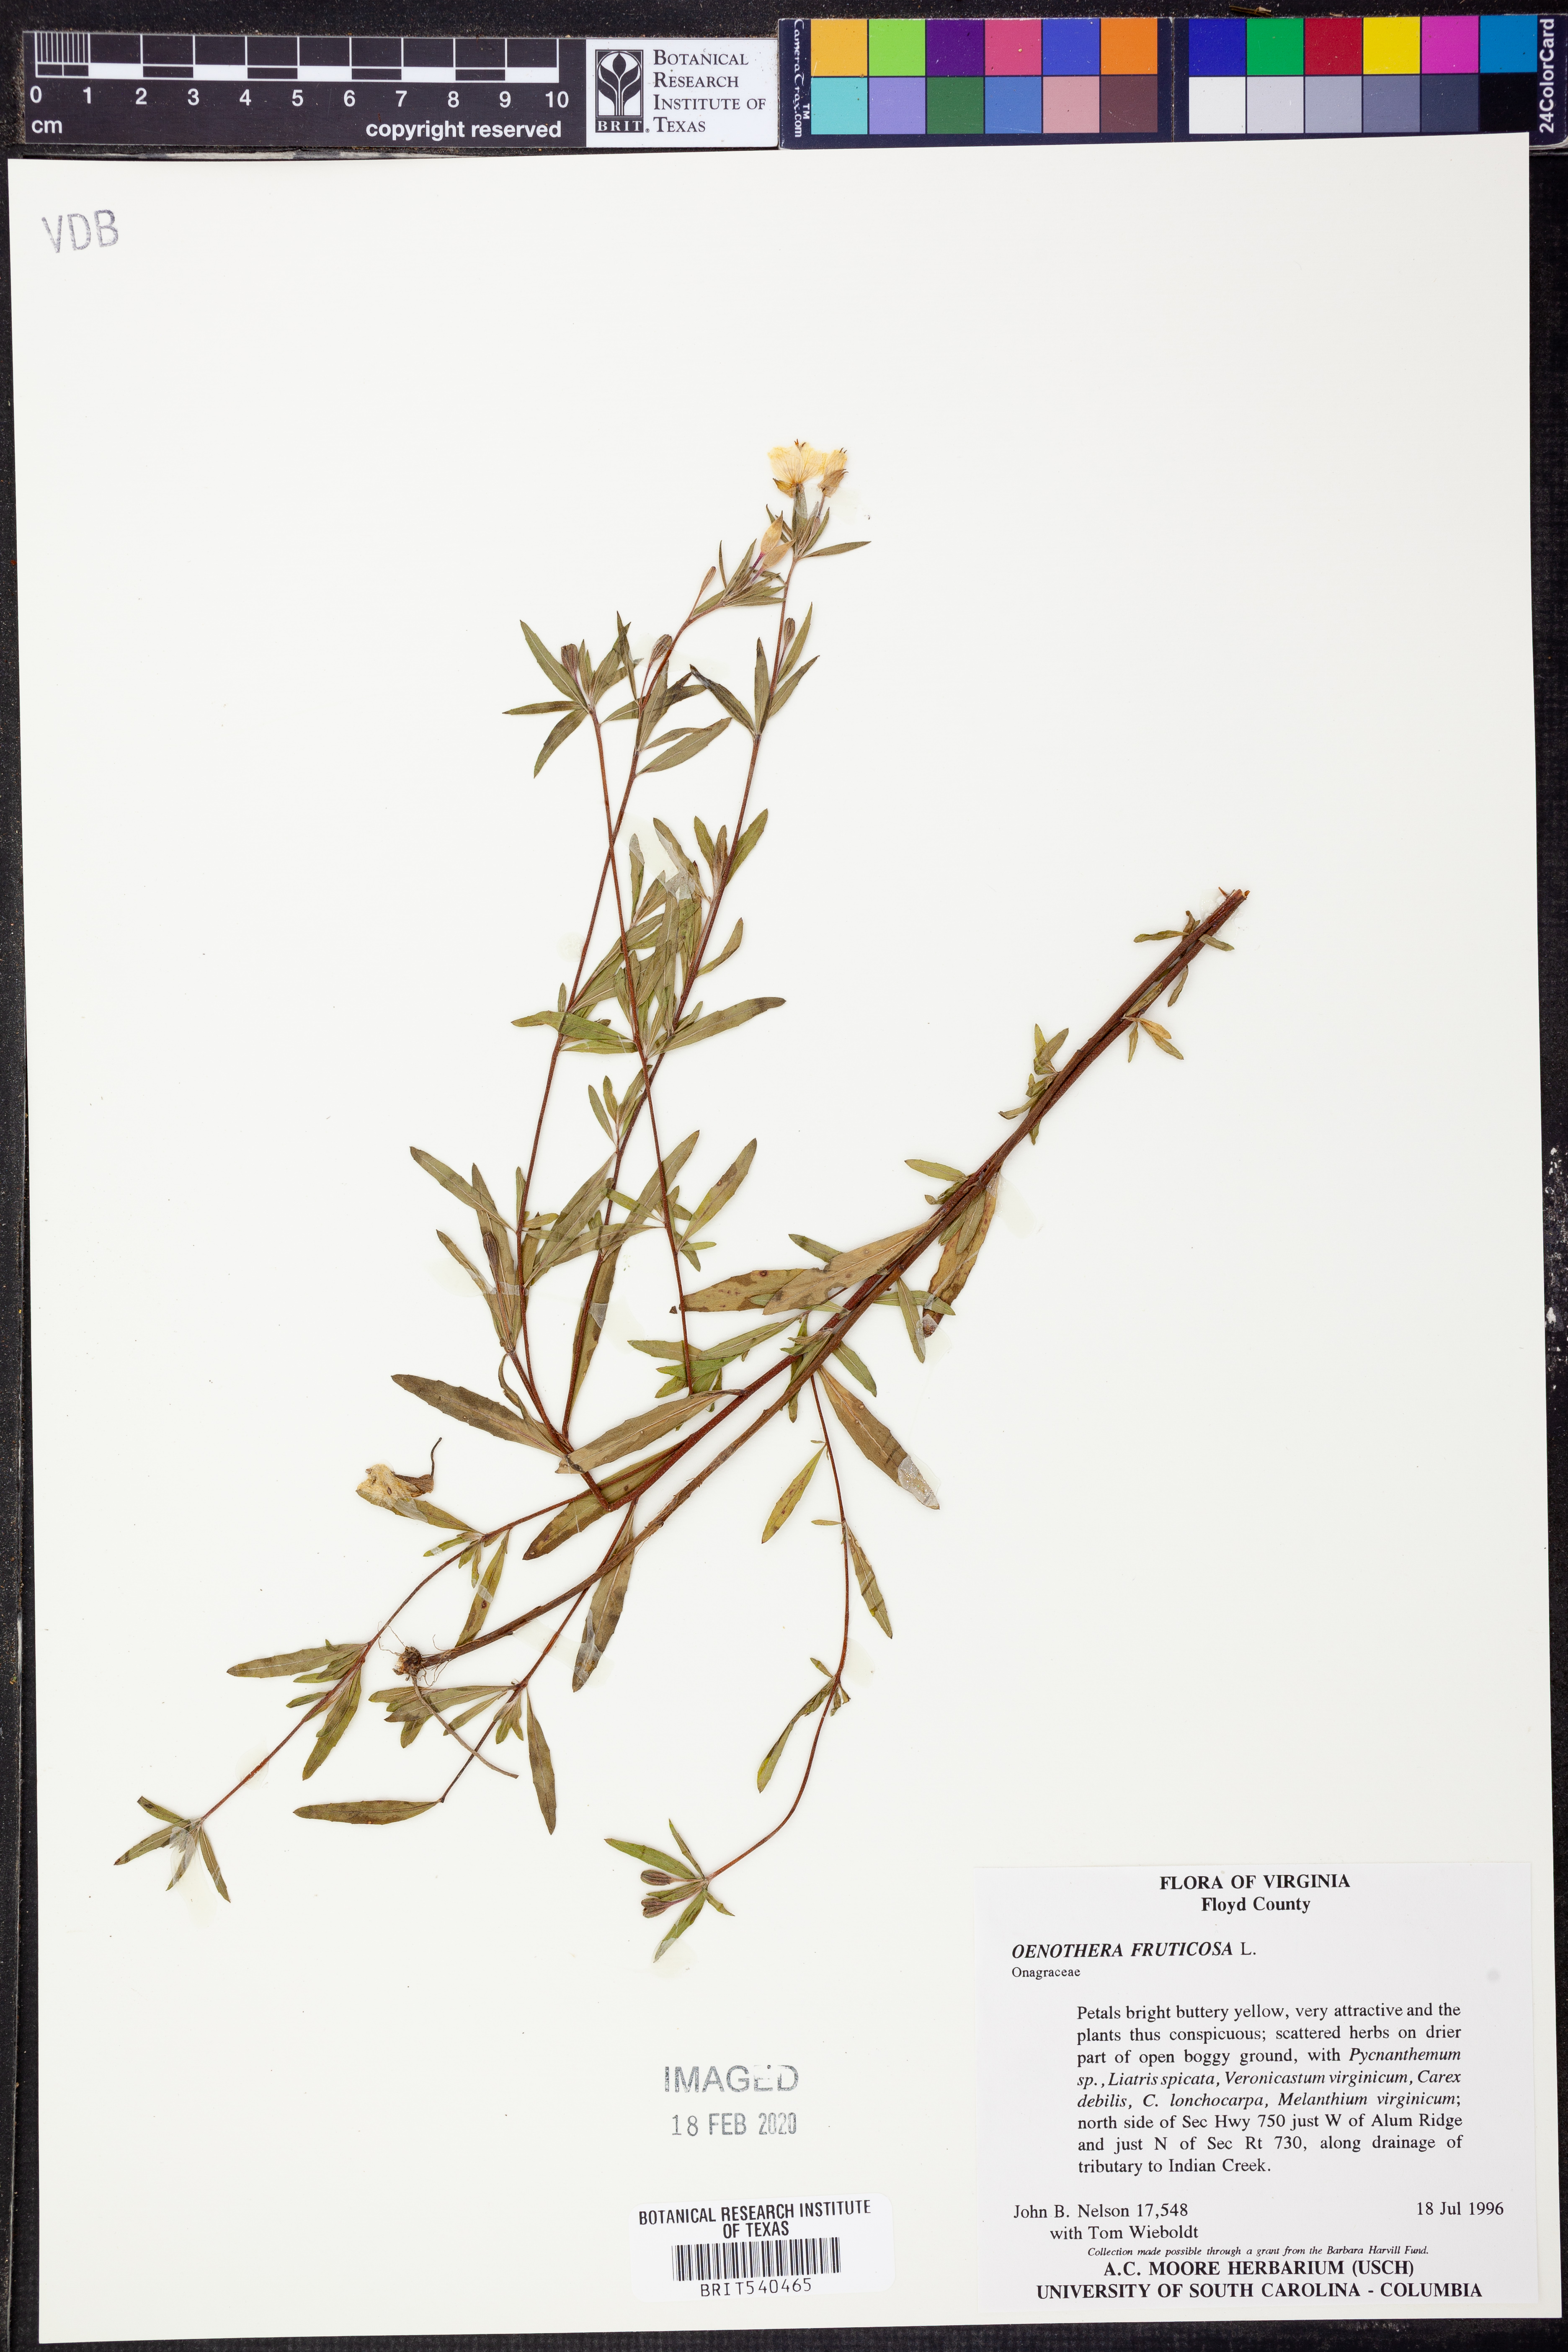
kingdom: Plantae
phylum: Tracheophyta
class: Magnoliopsida
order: Myrtales
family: Onagraceae
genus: Oenothera
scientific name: Oenothera fruticosa
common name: Southern sundrops
